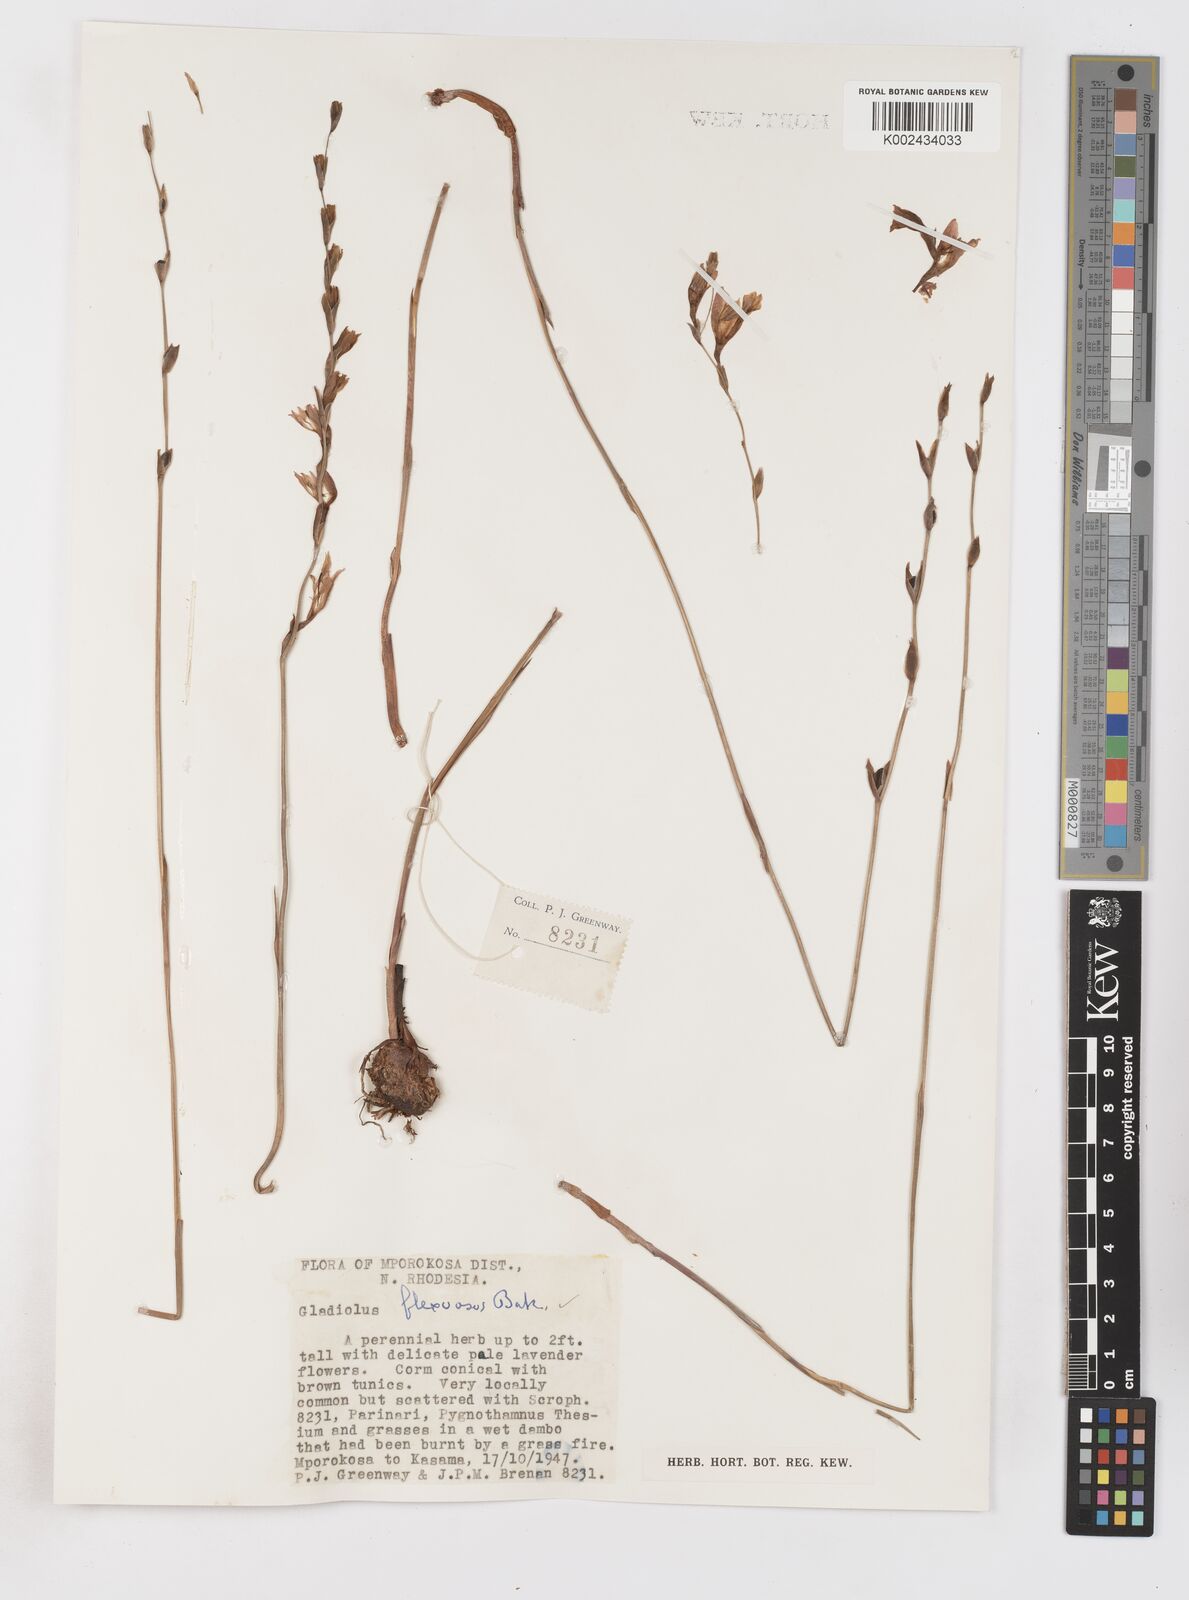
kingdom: Plantae
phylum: Tracheophyta
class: Liliopsida
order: Asparagales
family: Iridaceae
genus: Gladiolus
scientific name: Gladiolus atropurpureus
